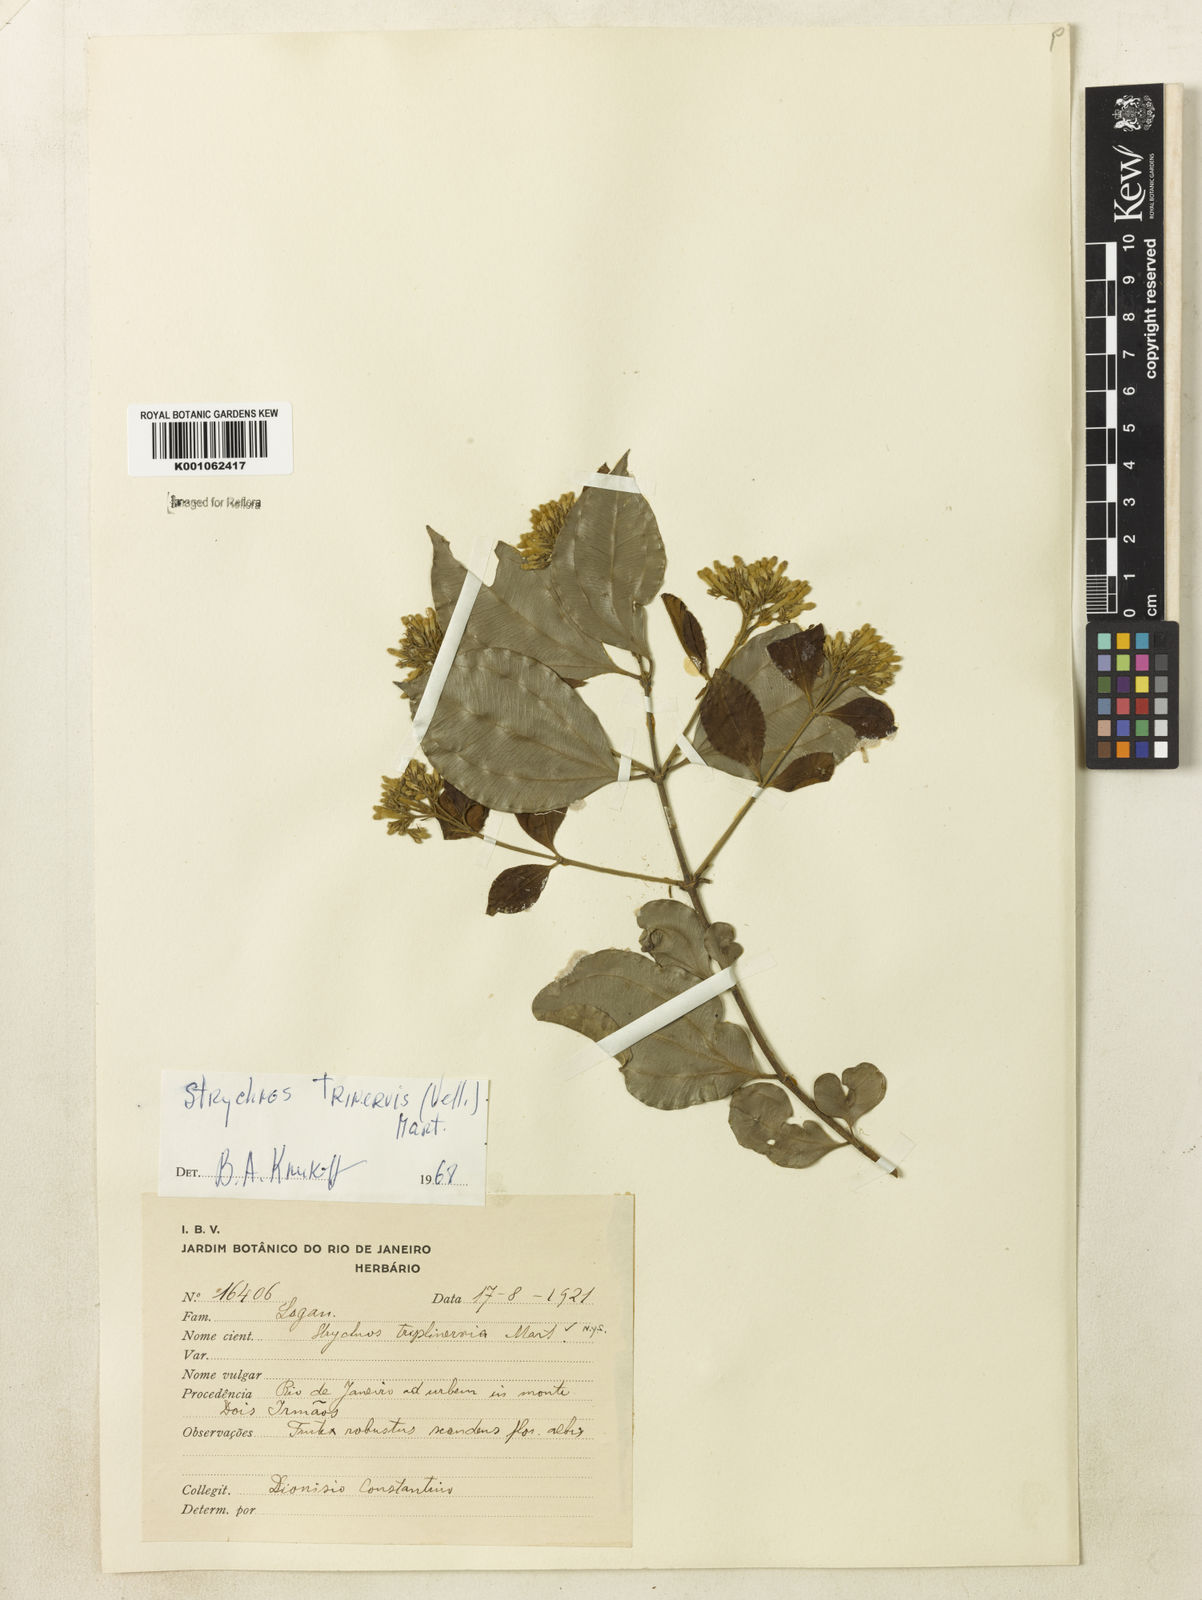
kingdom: Plantae
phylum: Tracheophyta
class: Magnoliopsida
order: Gentianales
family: Loganiaceae
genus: Strychnos
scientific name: Strychnos
